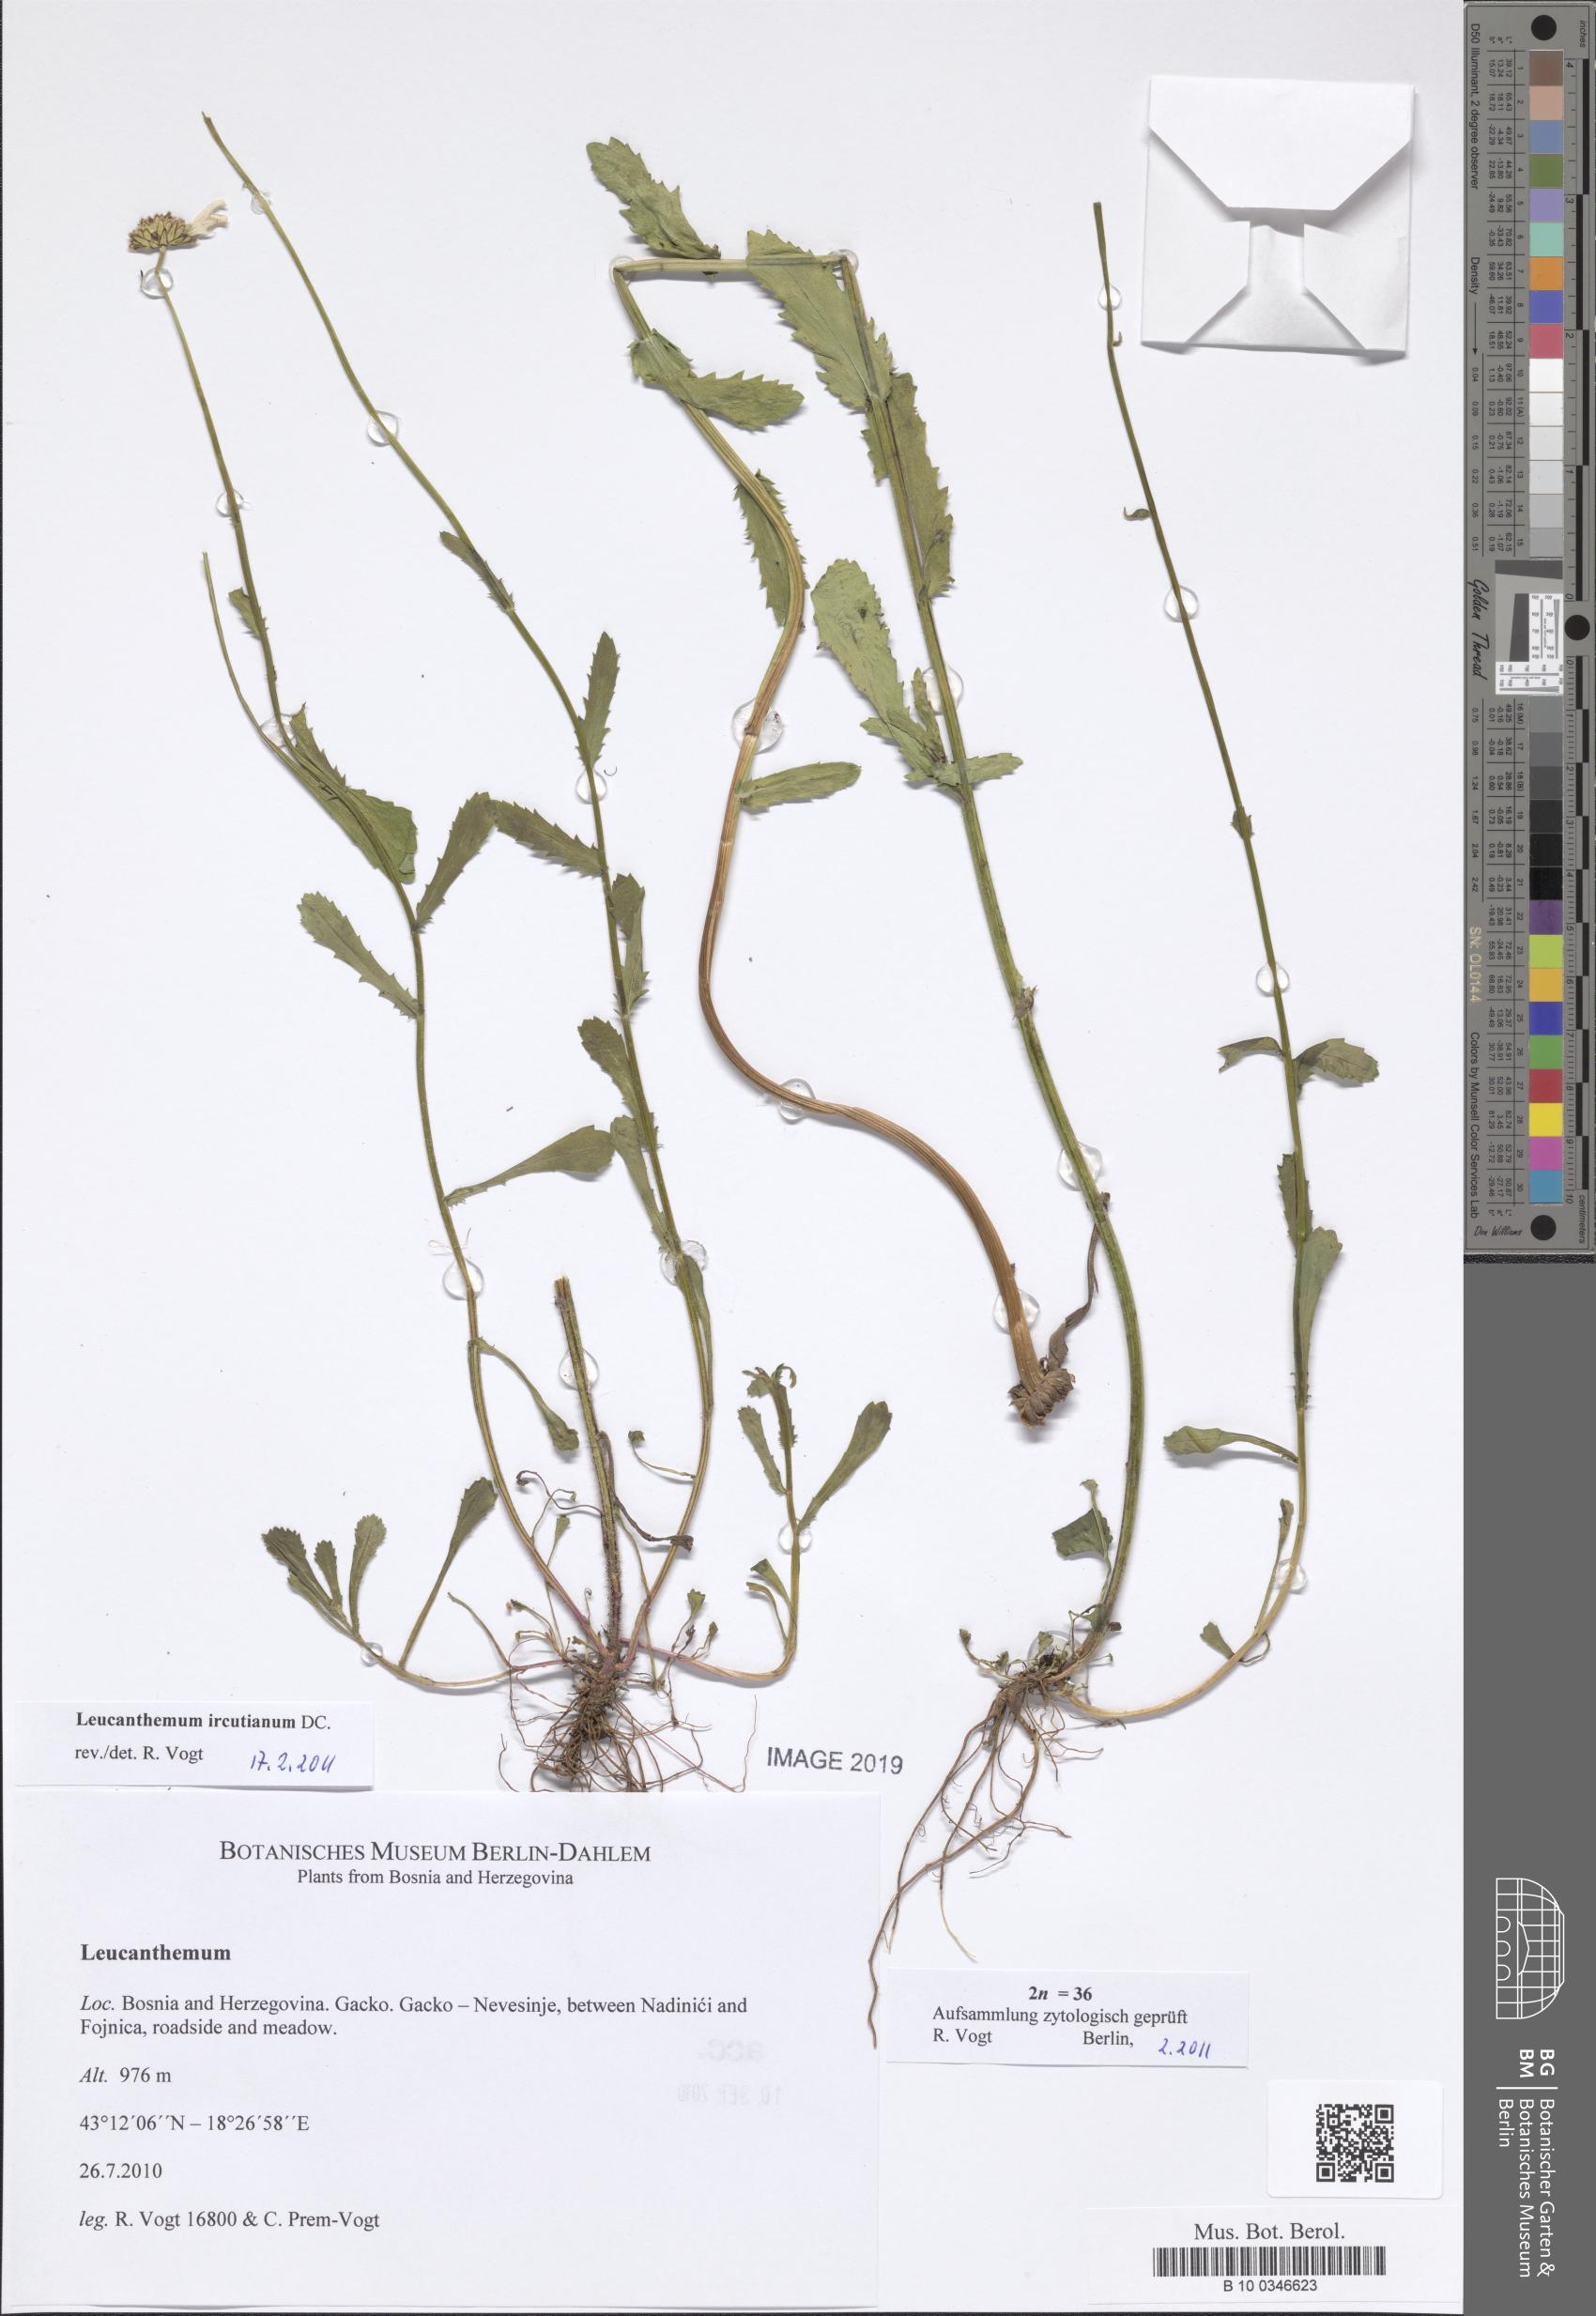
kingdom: Plantae
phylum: Tracheophyta
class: Magnoliopsida
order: Asterales
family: Asteraceae
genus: Leucanthemum
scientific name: Leucanthemum ircutianum
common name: Daisy
